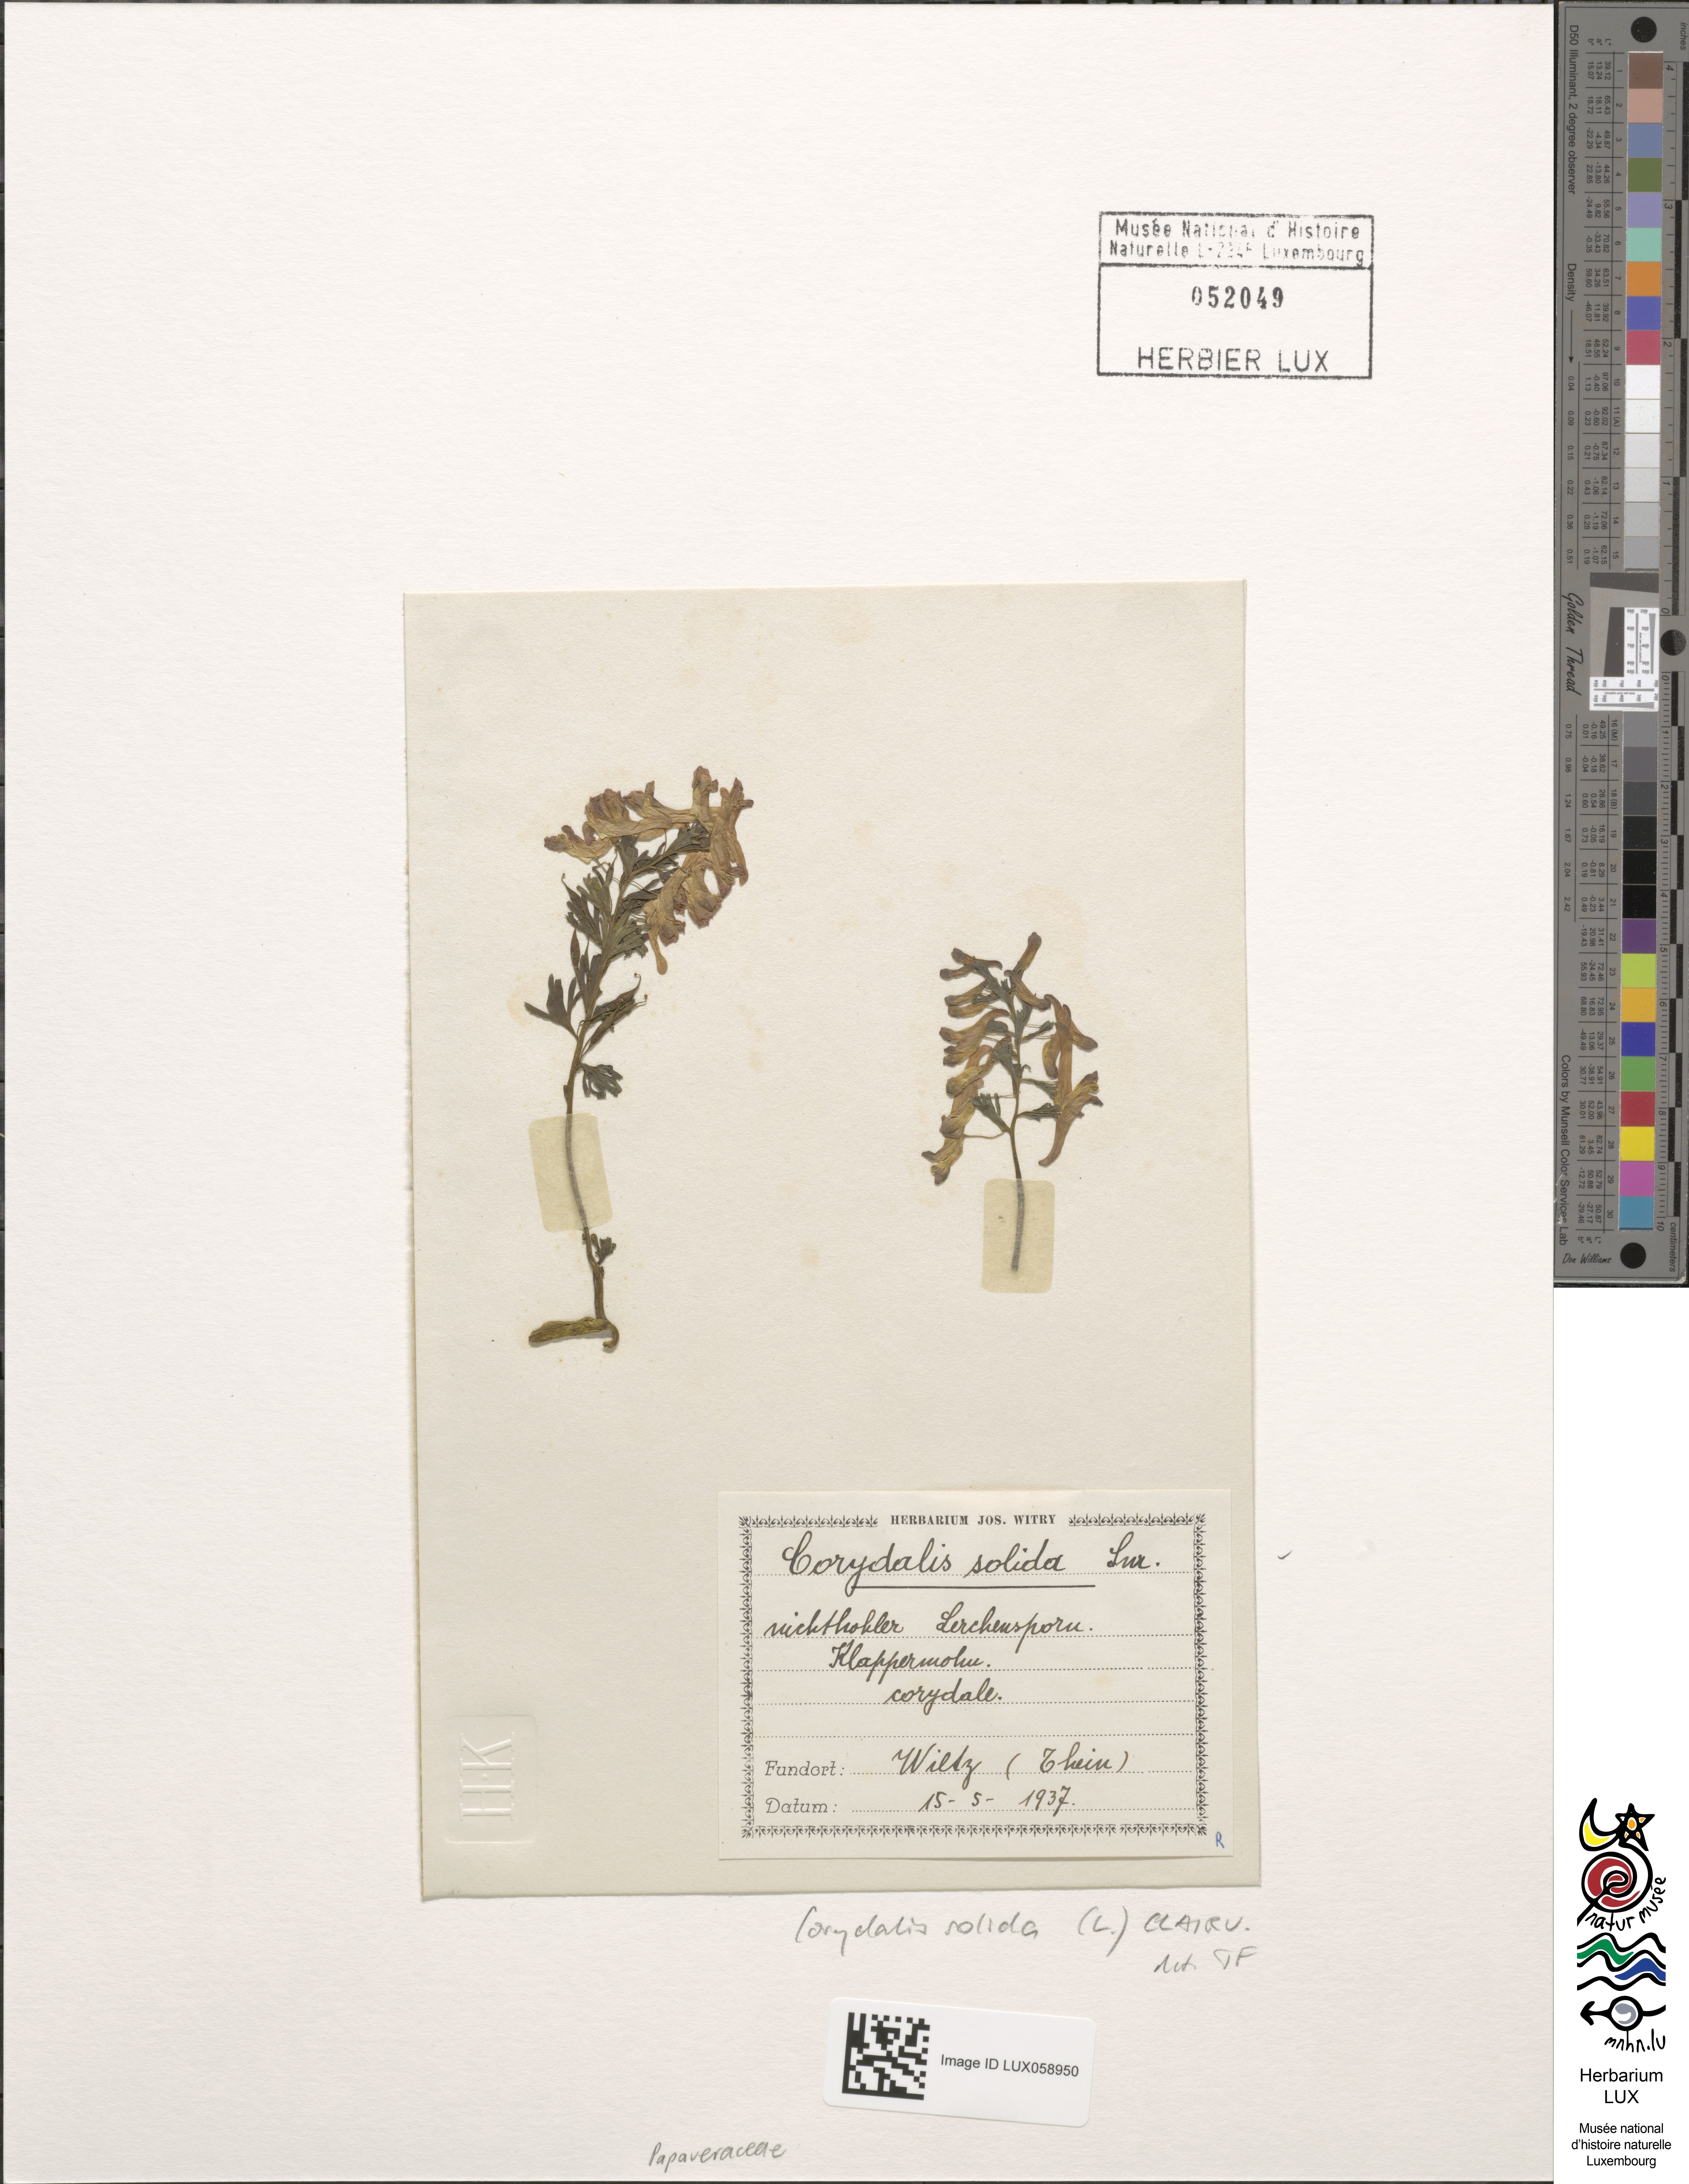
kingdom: Plantae
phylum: Tracheophyta
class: Magnoliopsida
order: Ranunculales
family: Papaveraceae
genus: Corydalis
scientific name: Corydalis solida
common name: Bird-in-a-bush
